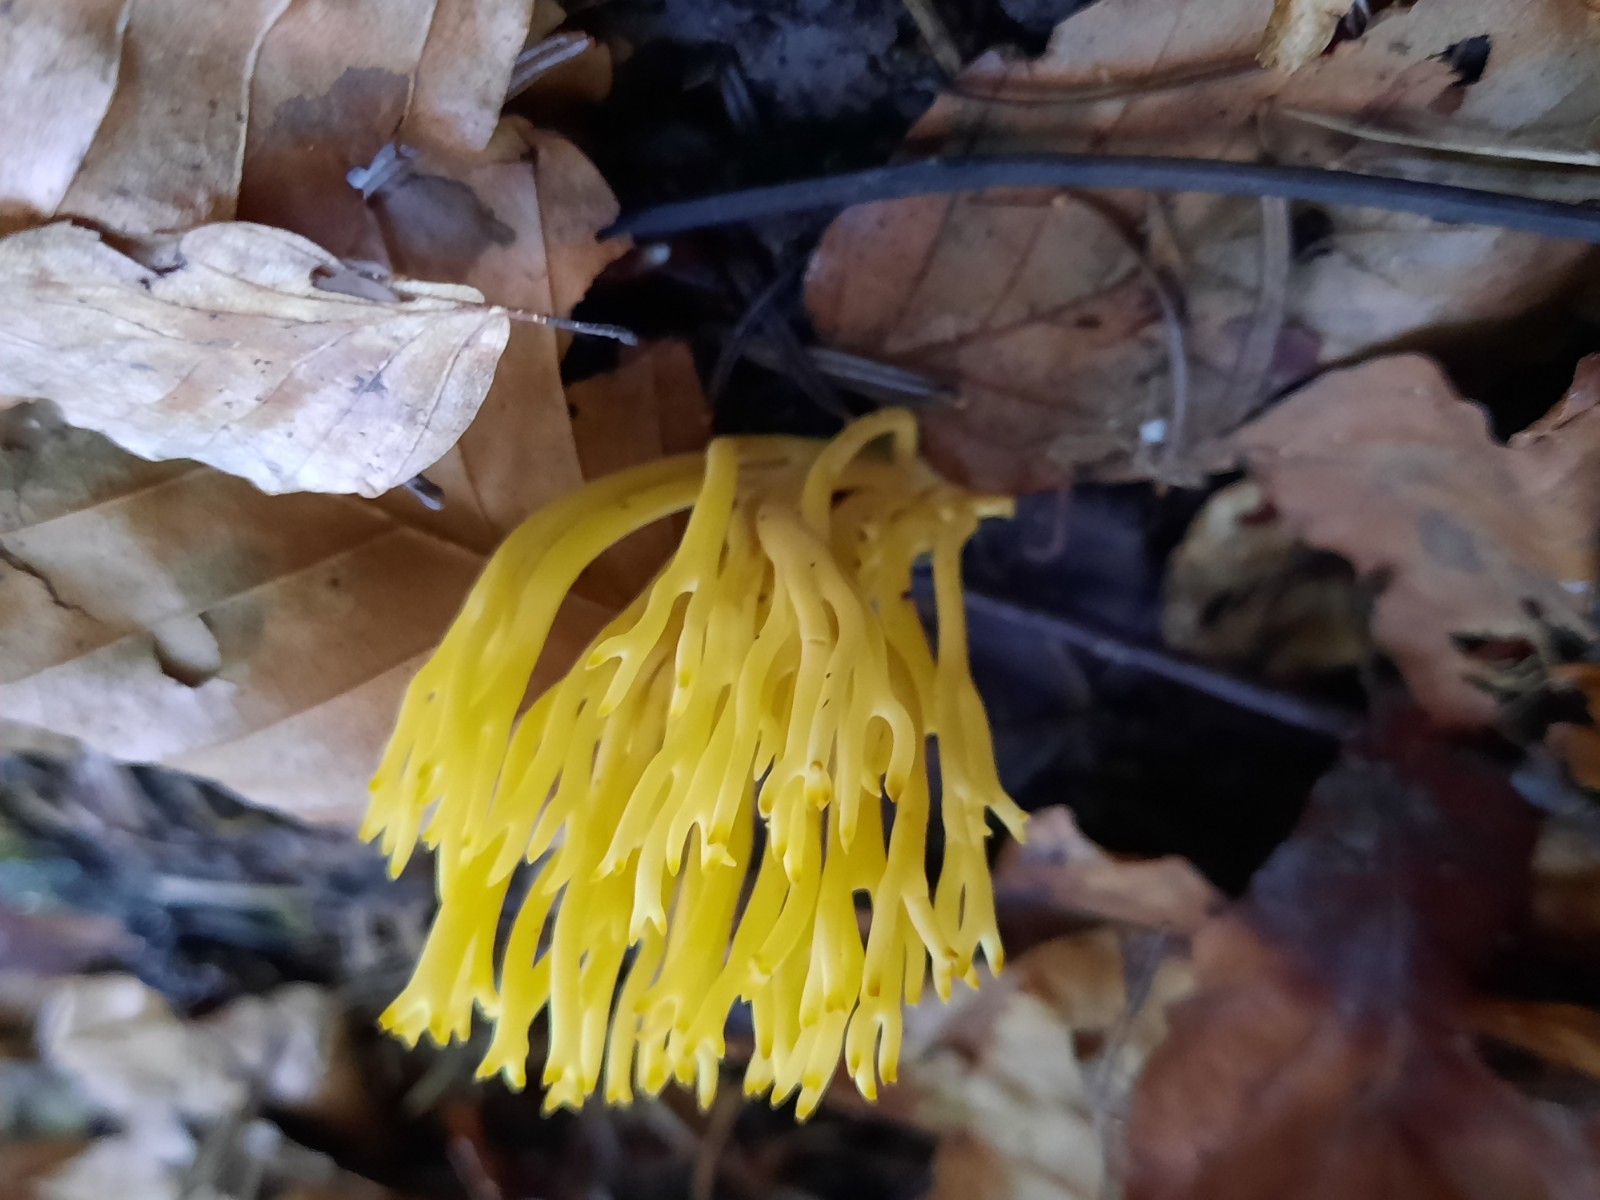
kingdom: Fungi
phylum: Basidiomycota
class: Agaricomycetes
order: Agaricales
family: Clavariaceae
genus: Clavulinopsis
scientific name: Clavulinopsis corniculata
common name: eng-køllesvamp
